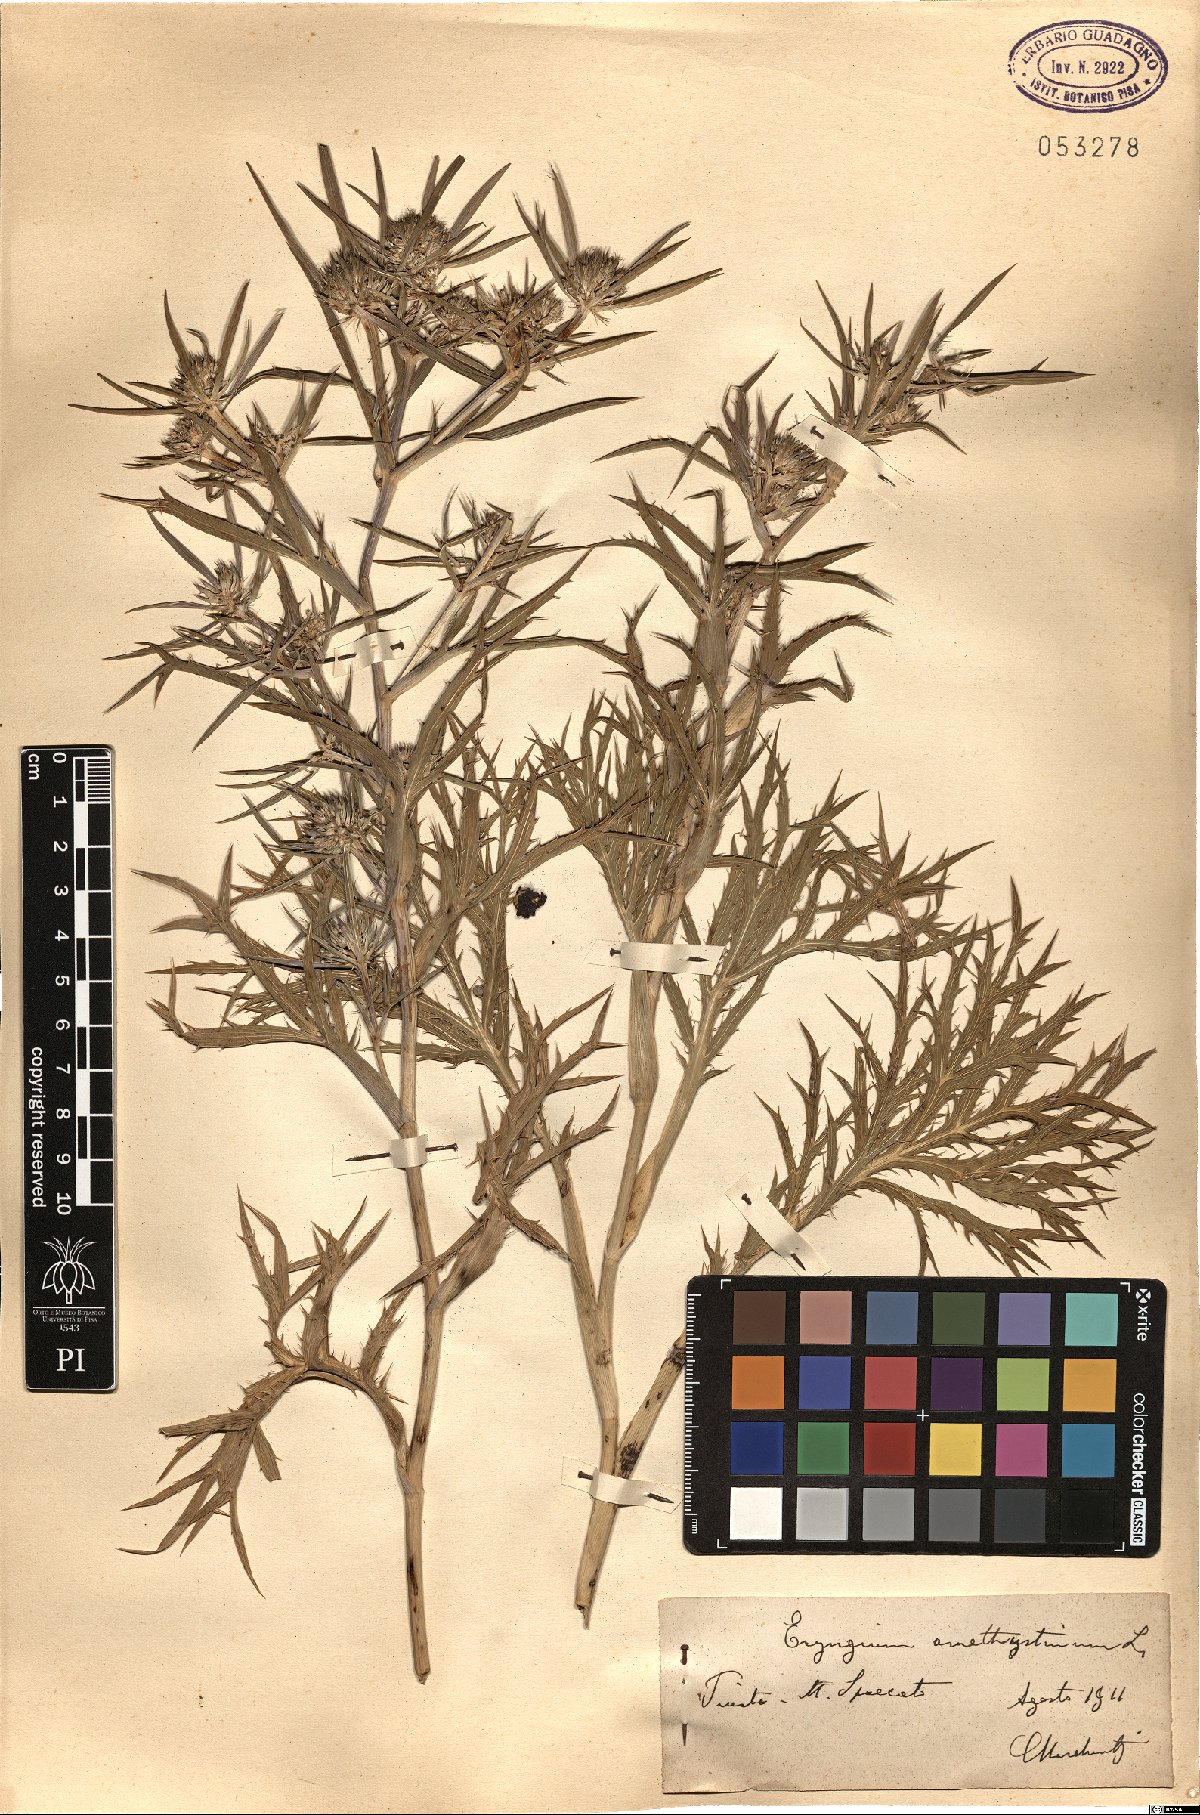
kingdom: Plantae
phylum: Tracheophyta
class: Magnoliopsida
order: Apiales
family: Apiaceae
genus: Eryngium
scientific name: Eryngium amethystinum
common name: Amethyst eryngo
